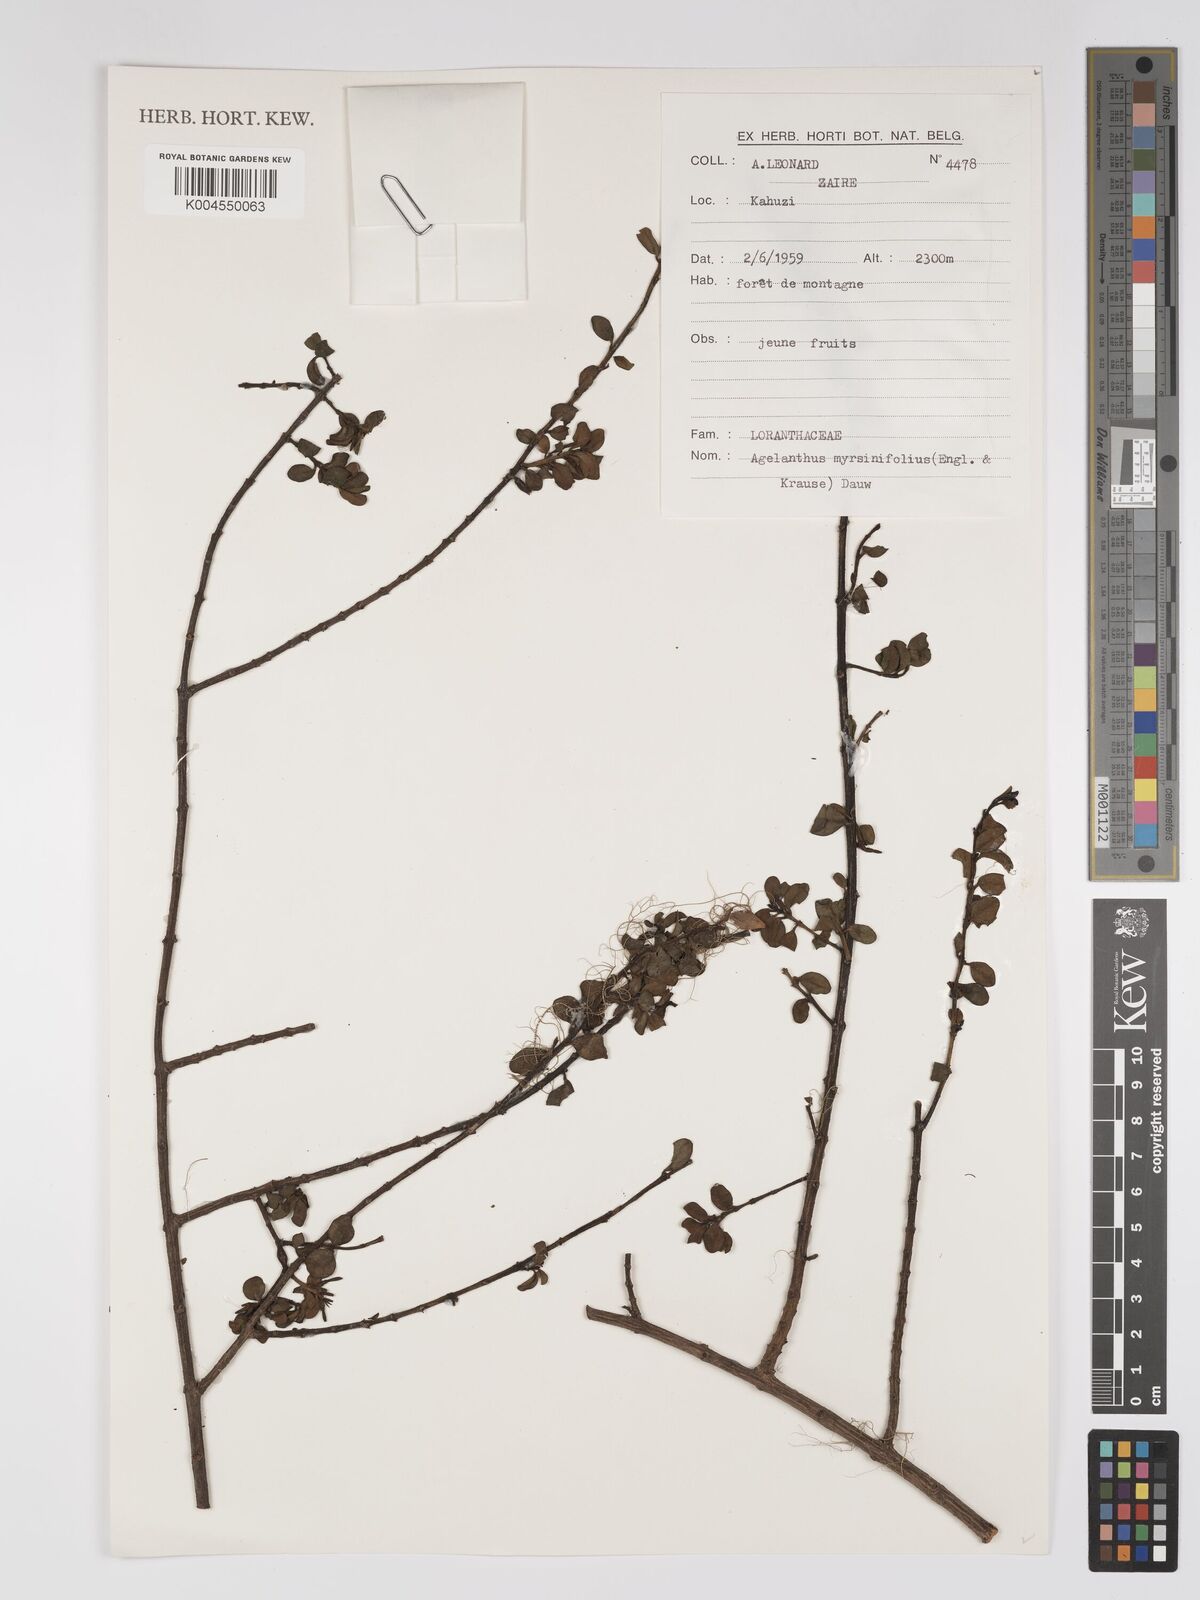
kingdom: Plantae
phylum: Tracheophyta
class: Magnoliopsida
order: Santalales
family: Loranthaceae
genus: Agelanthus
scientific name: Agelanthus myrsinifolius
